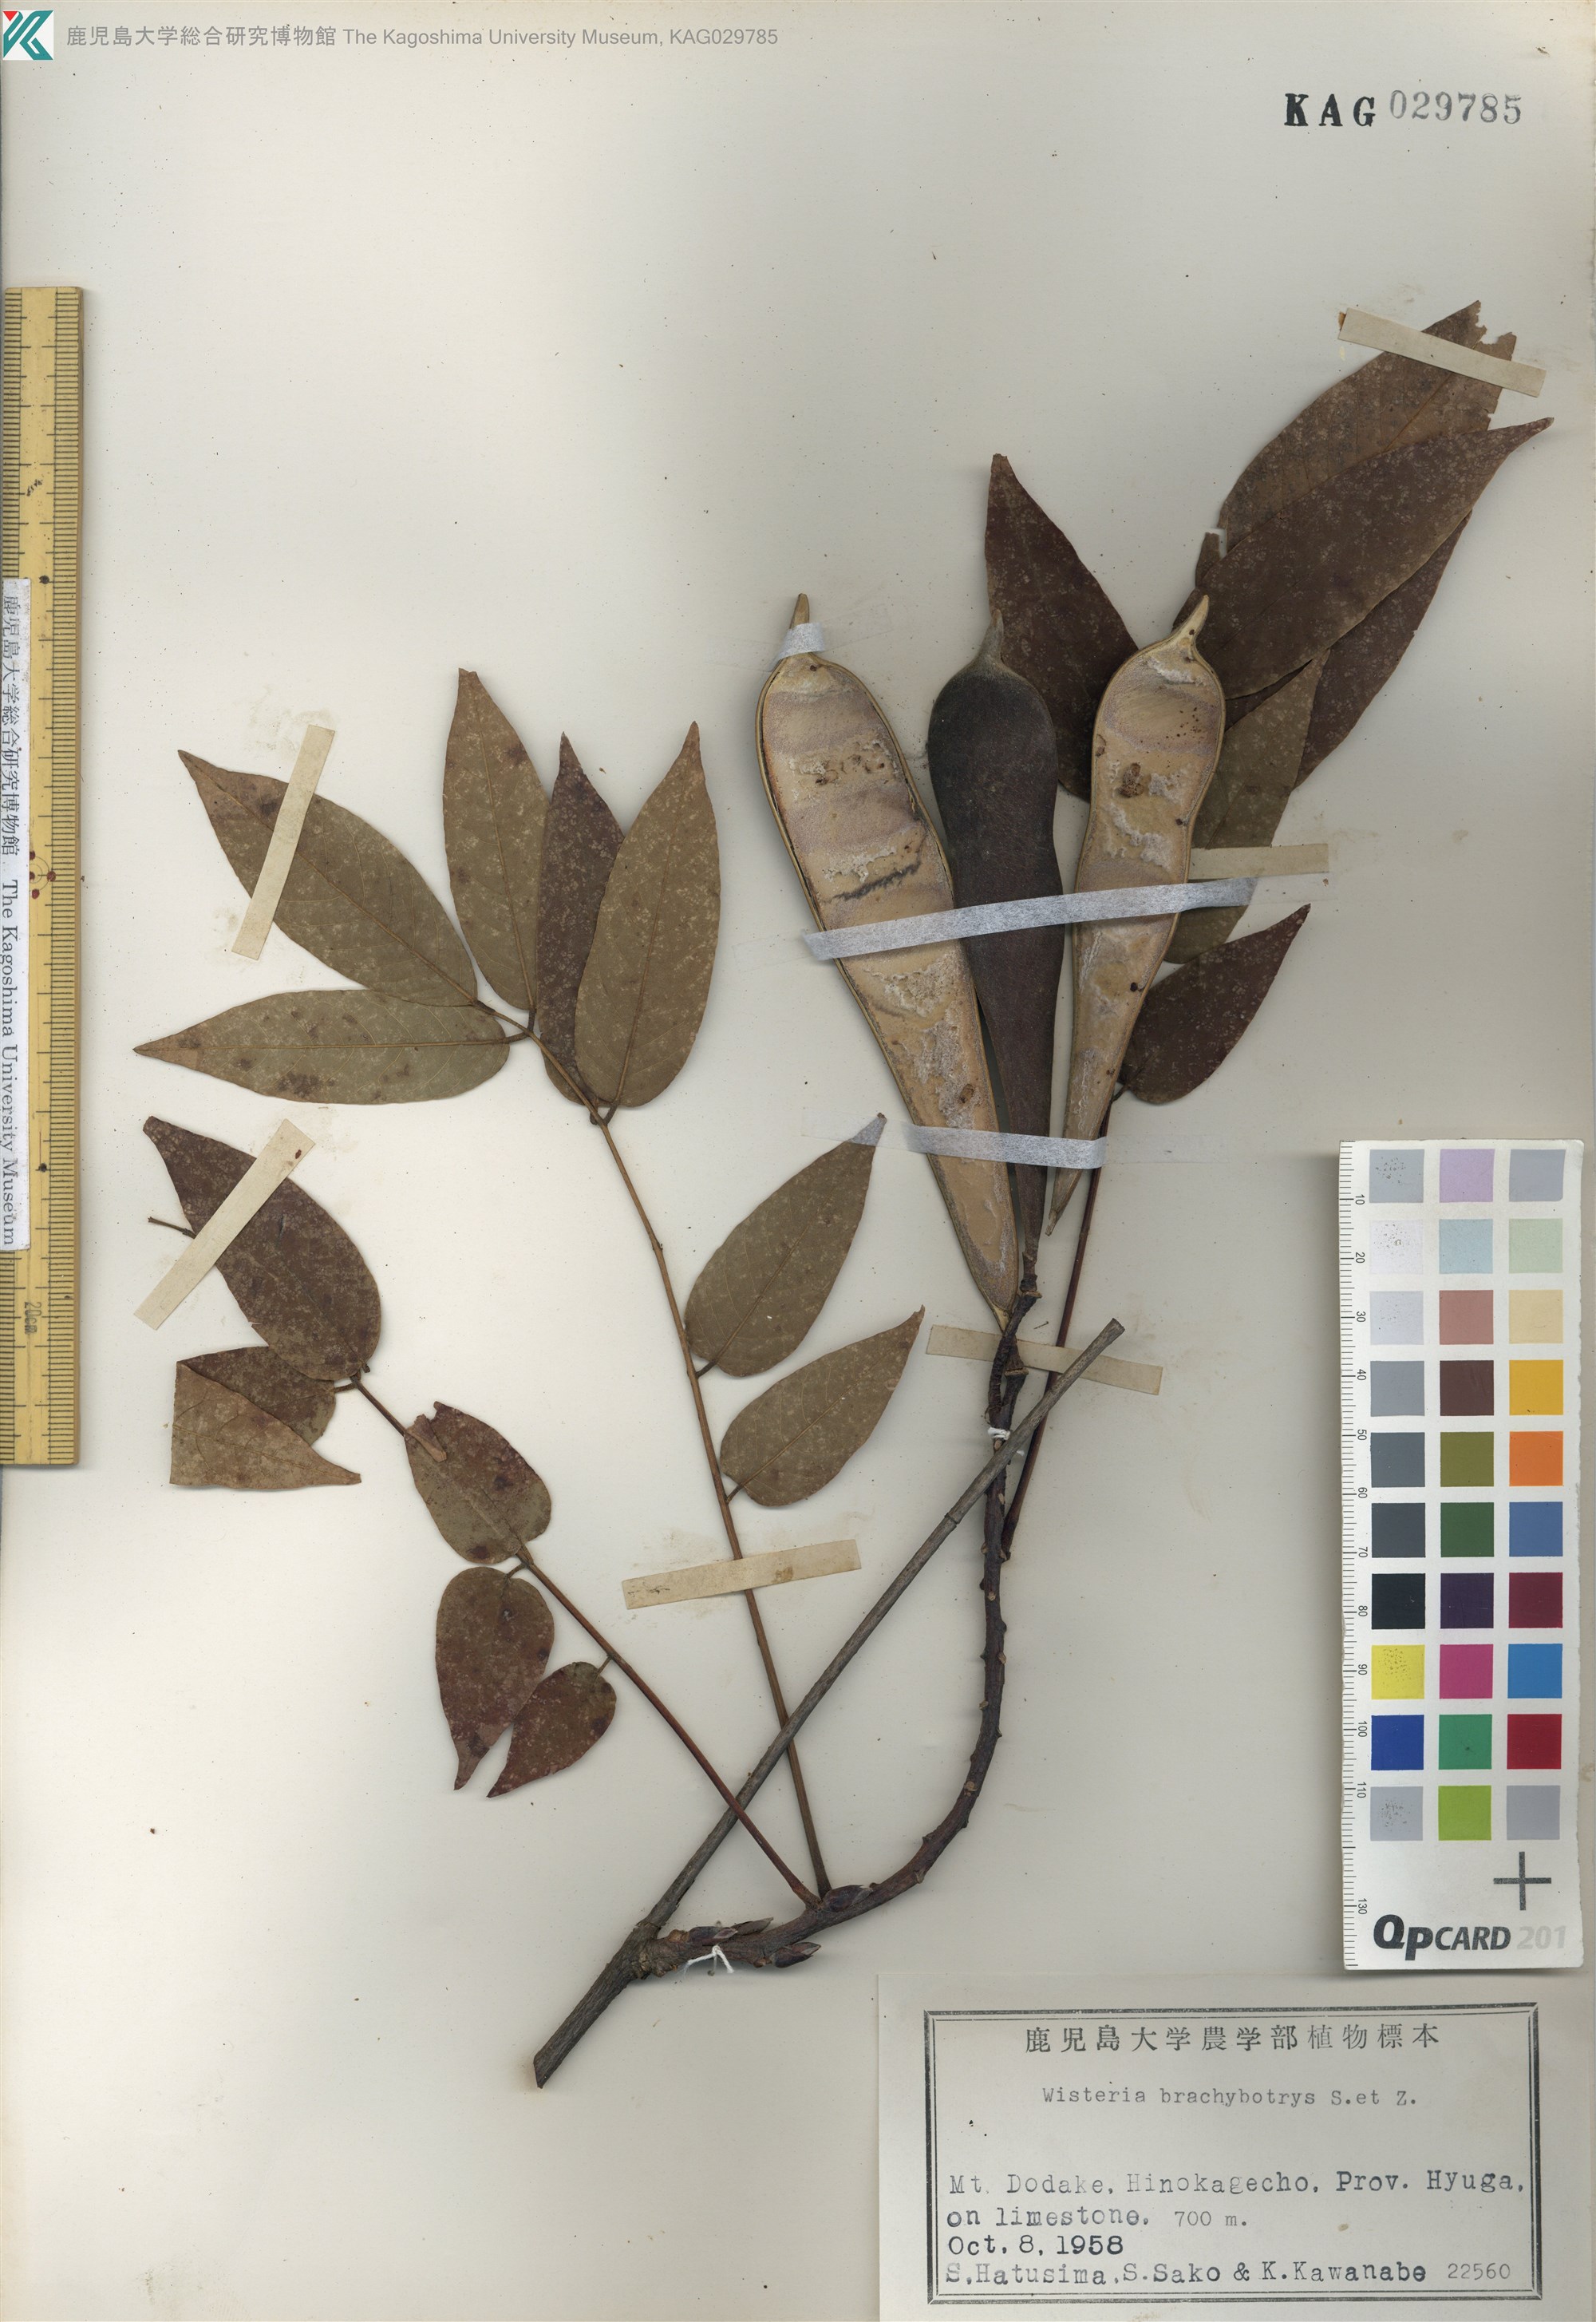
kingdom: Plantae
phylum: Tracheophyta
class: Magnoliopsida
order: Fabales
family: Fabaceae
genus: Wisteria
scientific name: Wisteria brachybotrys
